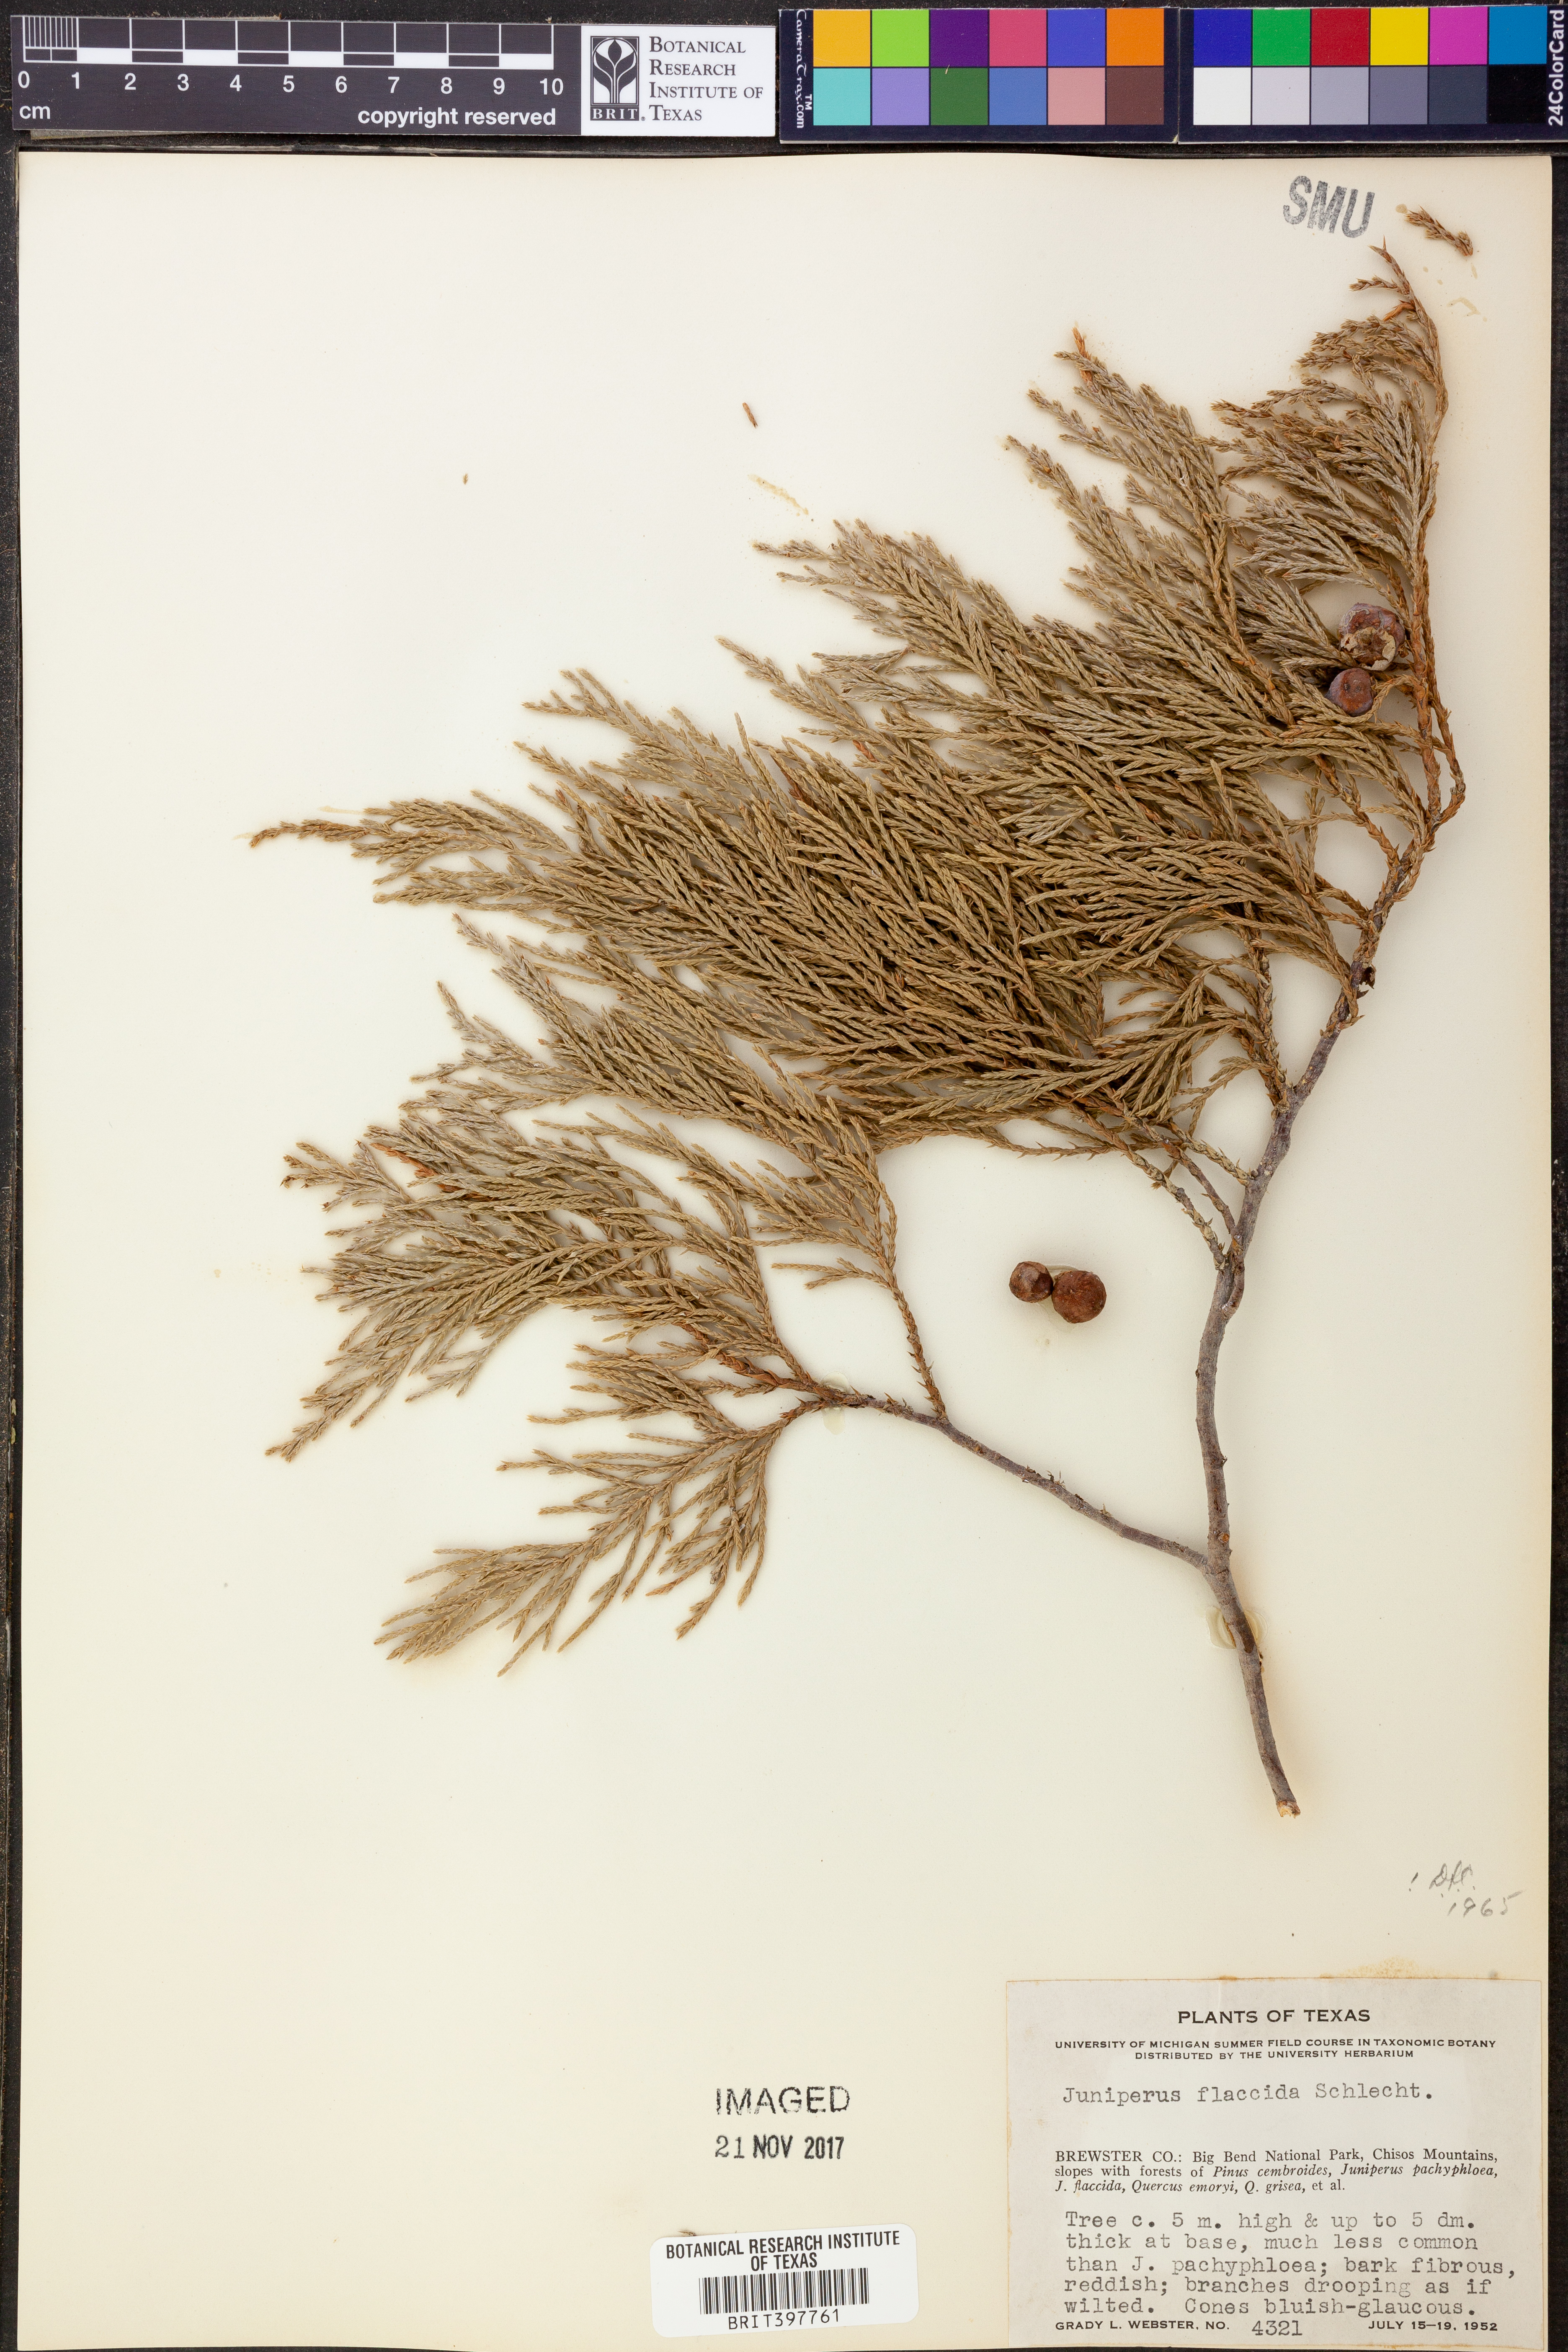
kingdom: Plantae
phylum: Tracheophyta
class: Pinopsida
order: Pinales
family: Cupressaceae
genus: Juniperus
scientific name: Juniperus flaccida
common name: Drooping juniper
